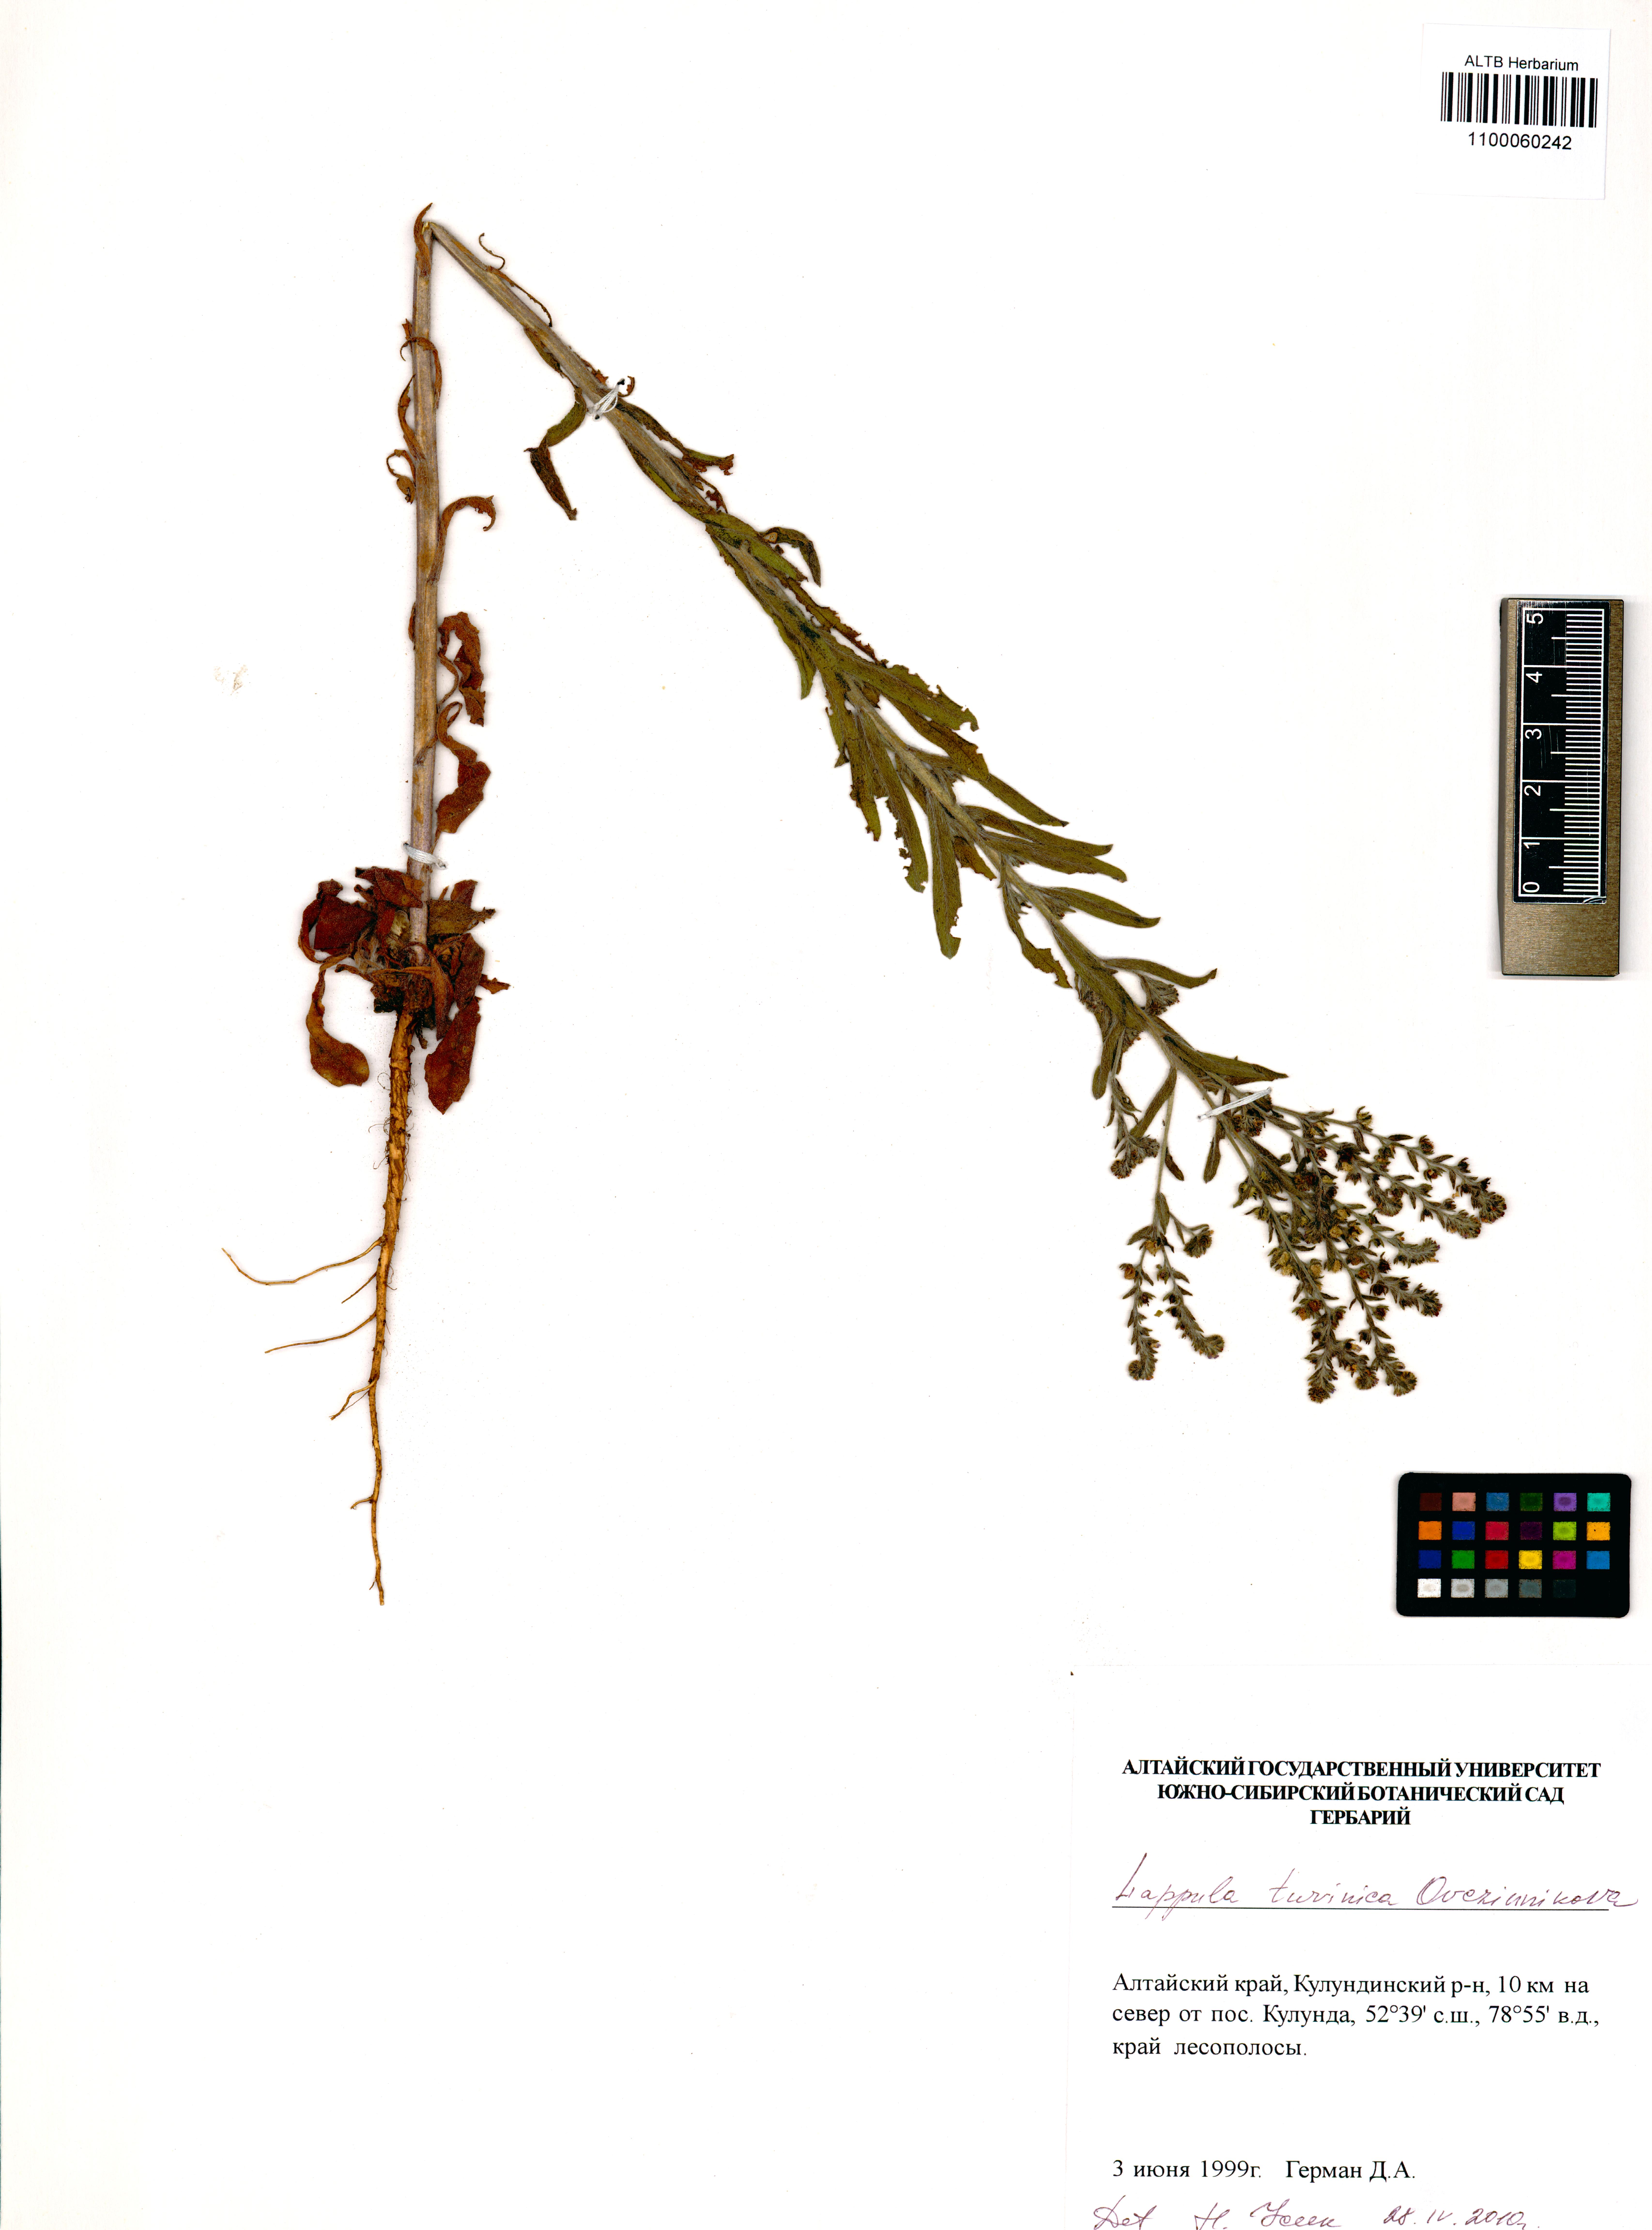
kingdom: Plantae
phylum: Tracheophyta
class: Magnoliopsida
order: Boraginales
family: Boraginaceae
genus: Lappula
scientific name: Lappula tuvinica
